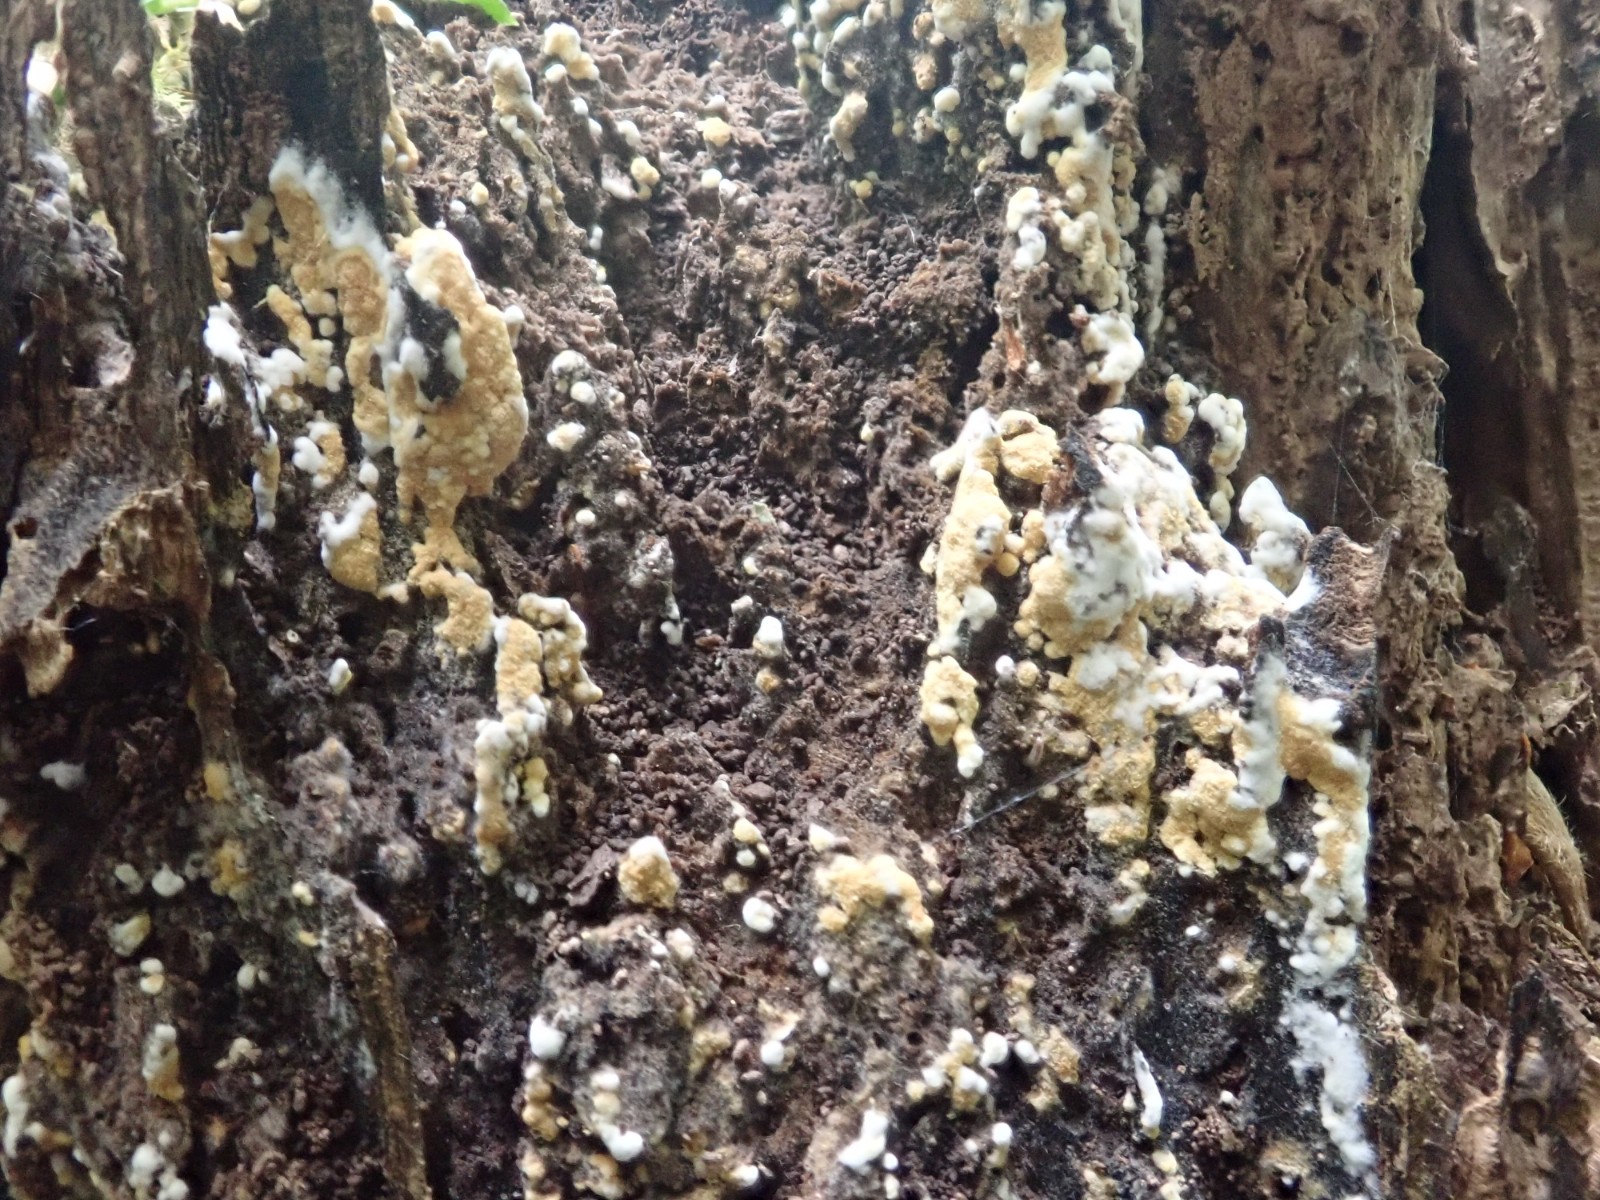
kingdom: Fungi
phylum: Basidiomycota
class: Agaricomycetes
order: Cantharellales
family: Botryobasidiaceae
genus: Botryobasidium
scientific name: Botryobasidium aureum
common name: gylden spindhinde
